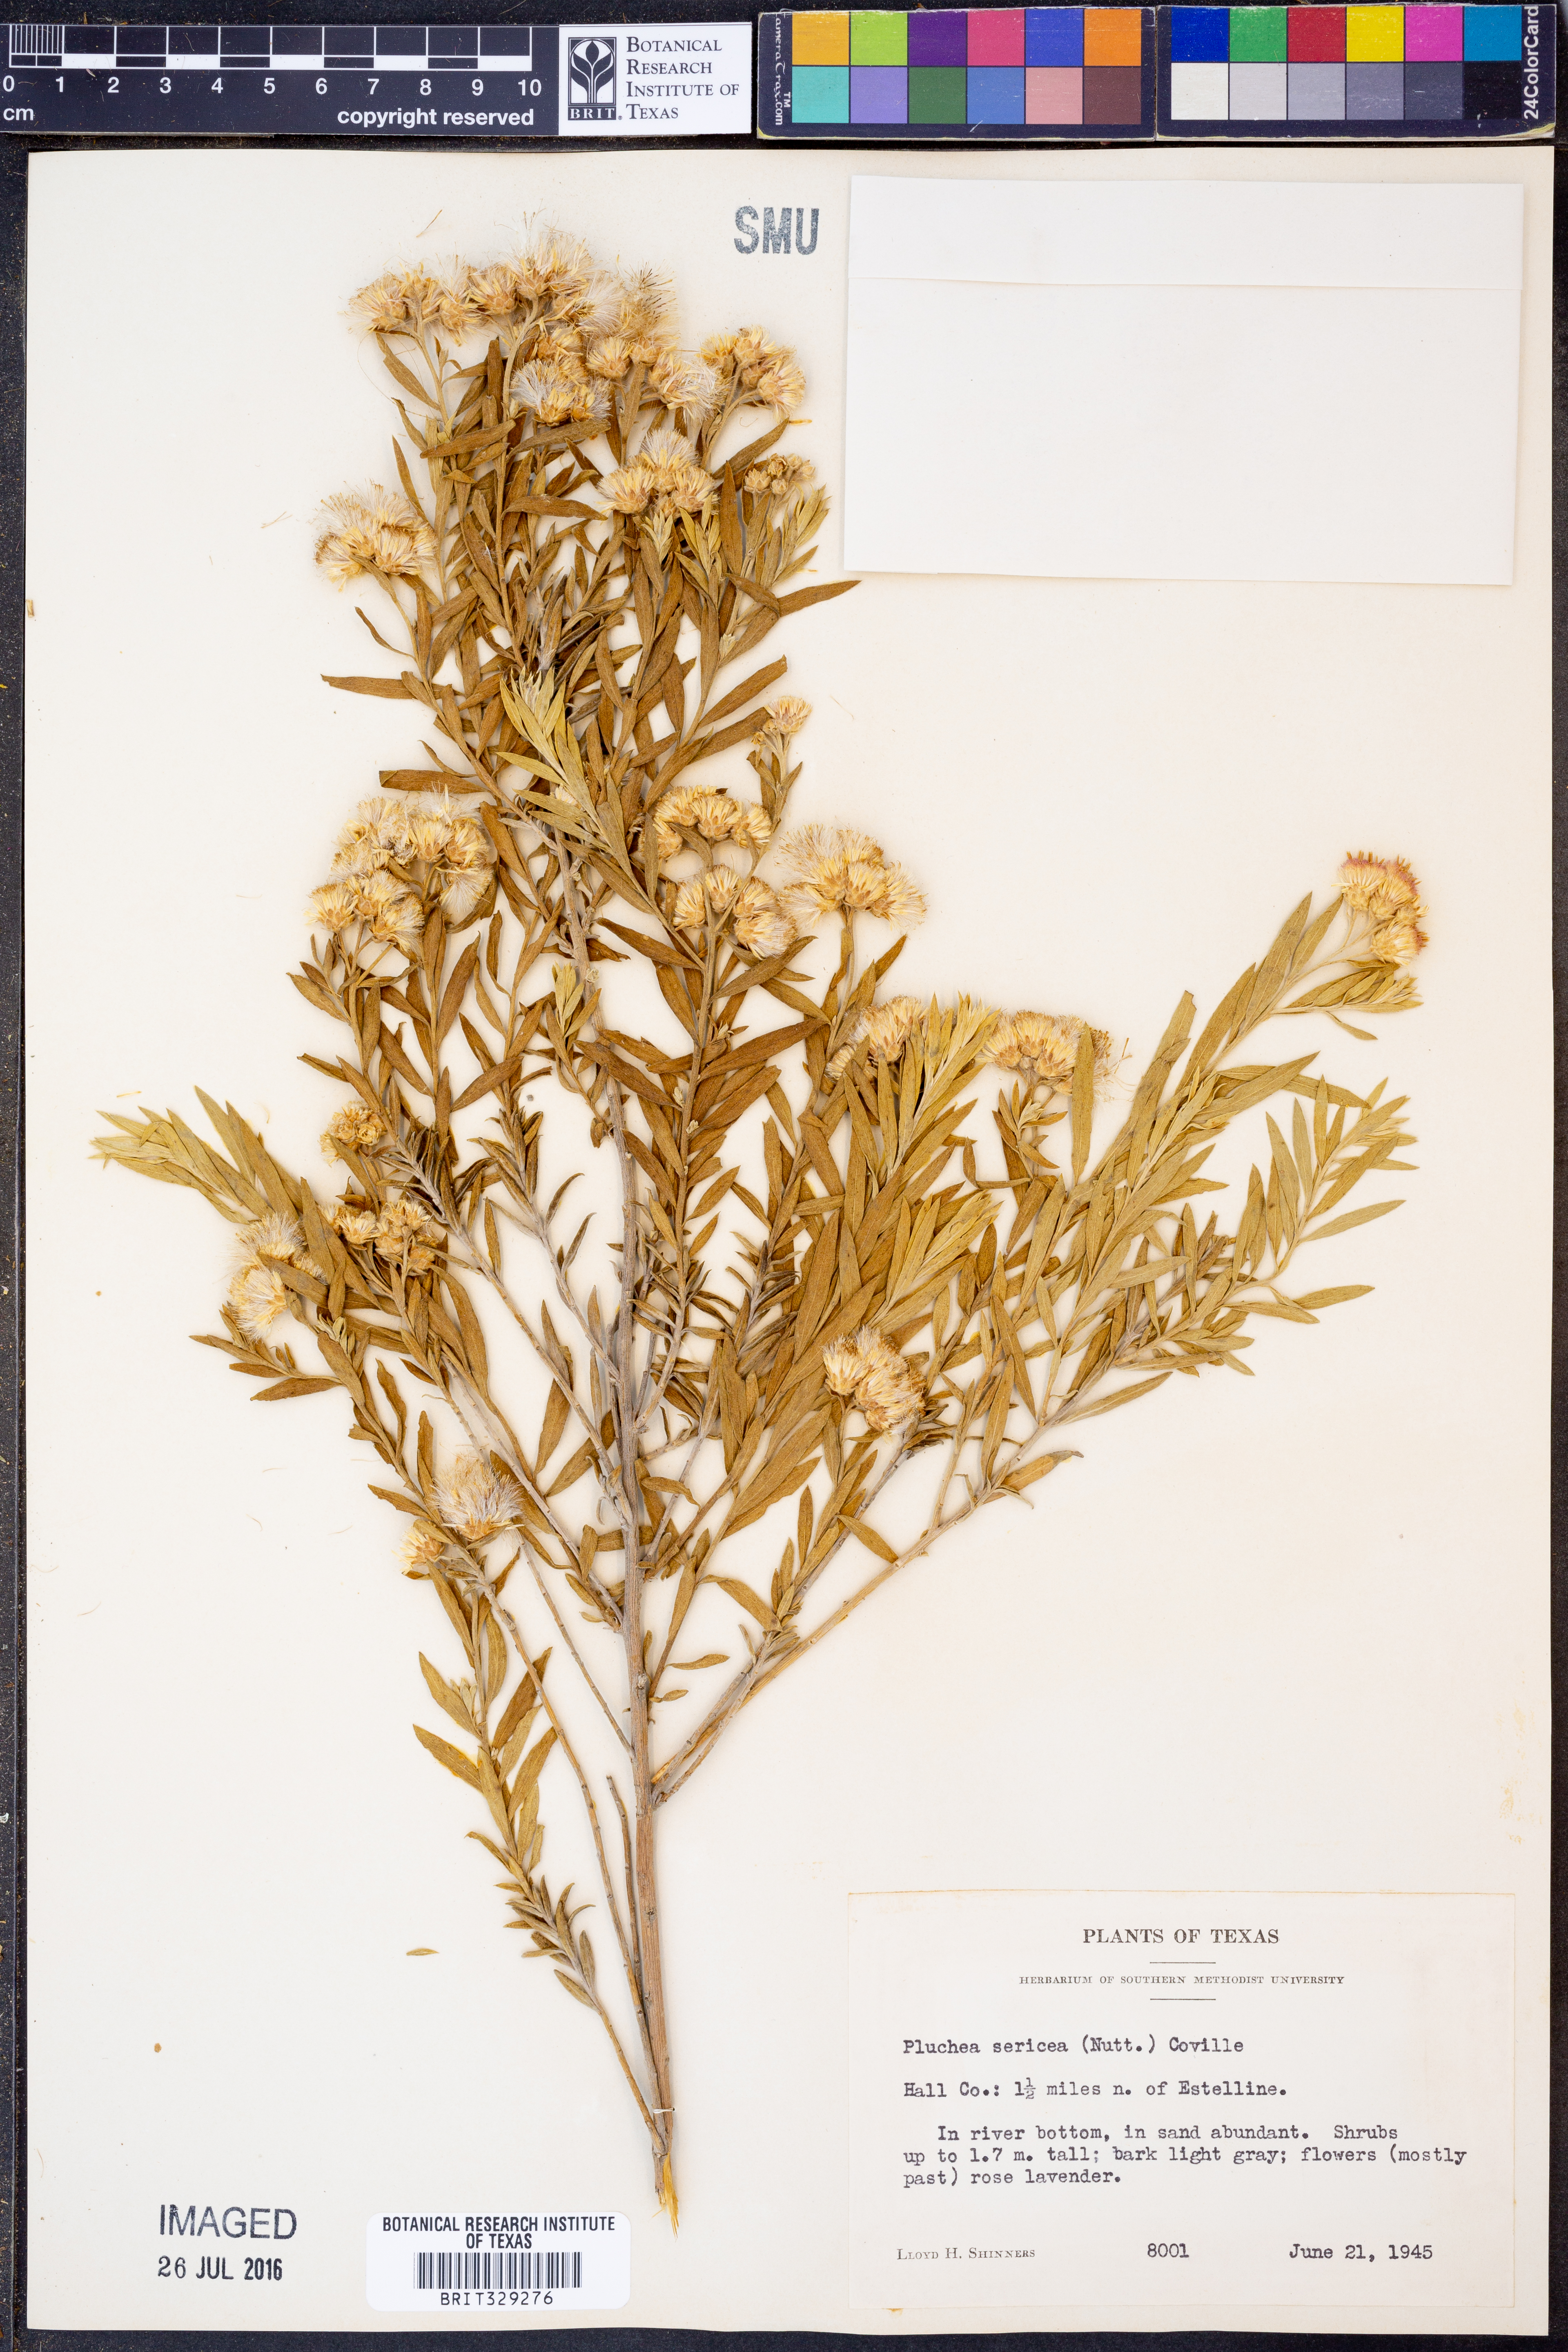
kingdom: Plantae
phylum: Tracheophyta
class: Magnoliopsida
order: Asterales
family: Asteraceae
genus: Pluchea
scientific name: Pluchea sericea
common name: Arrow-weed
